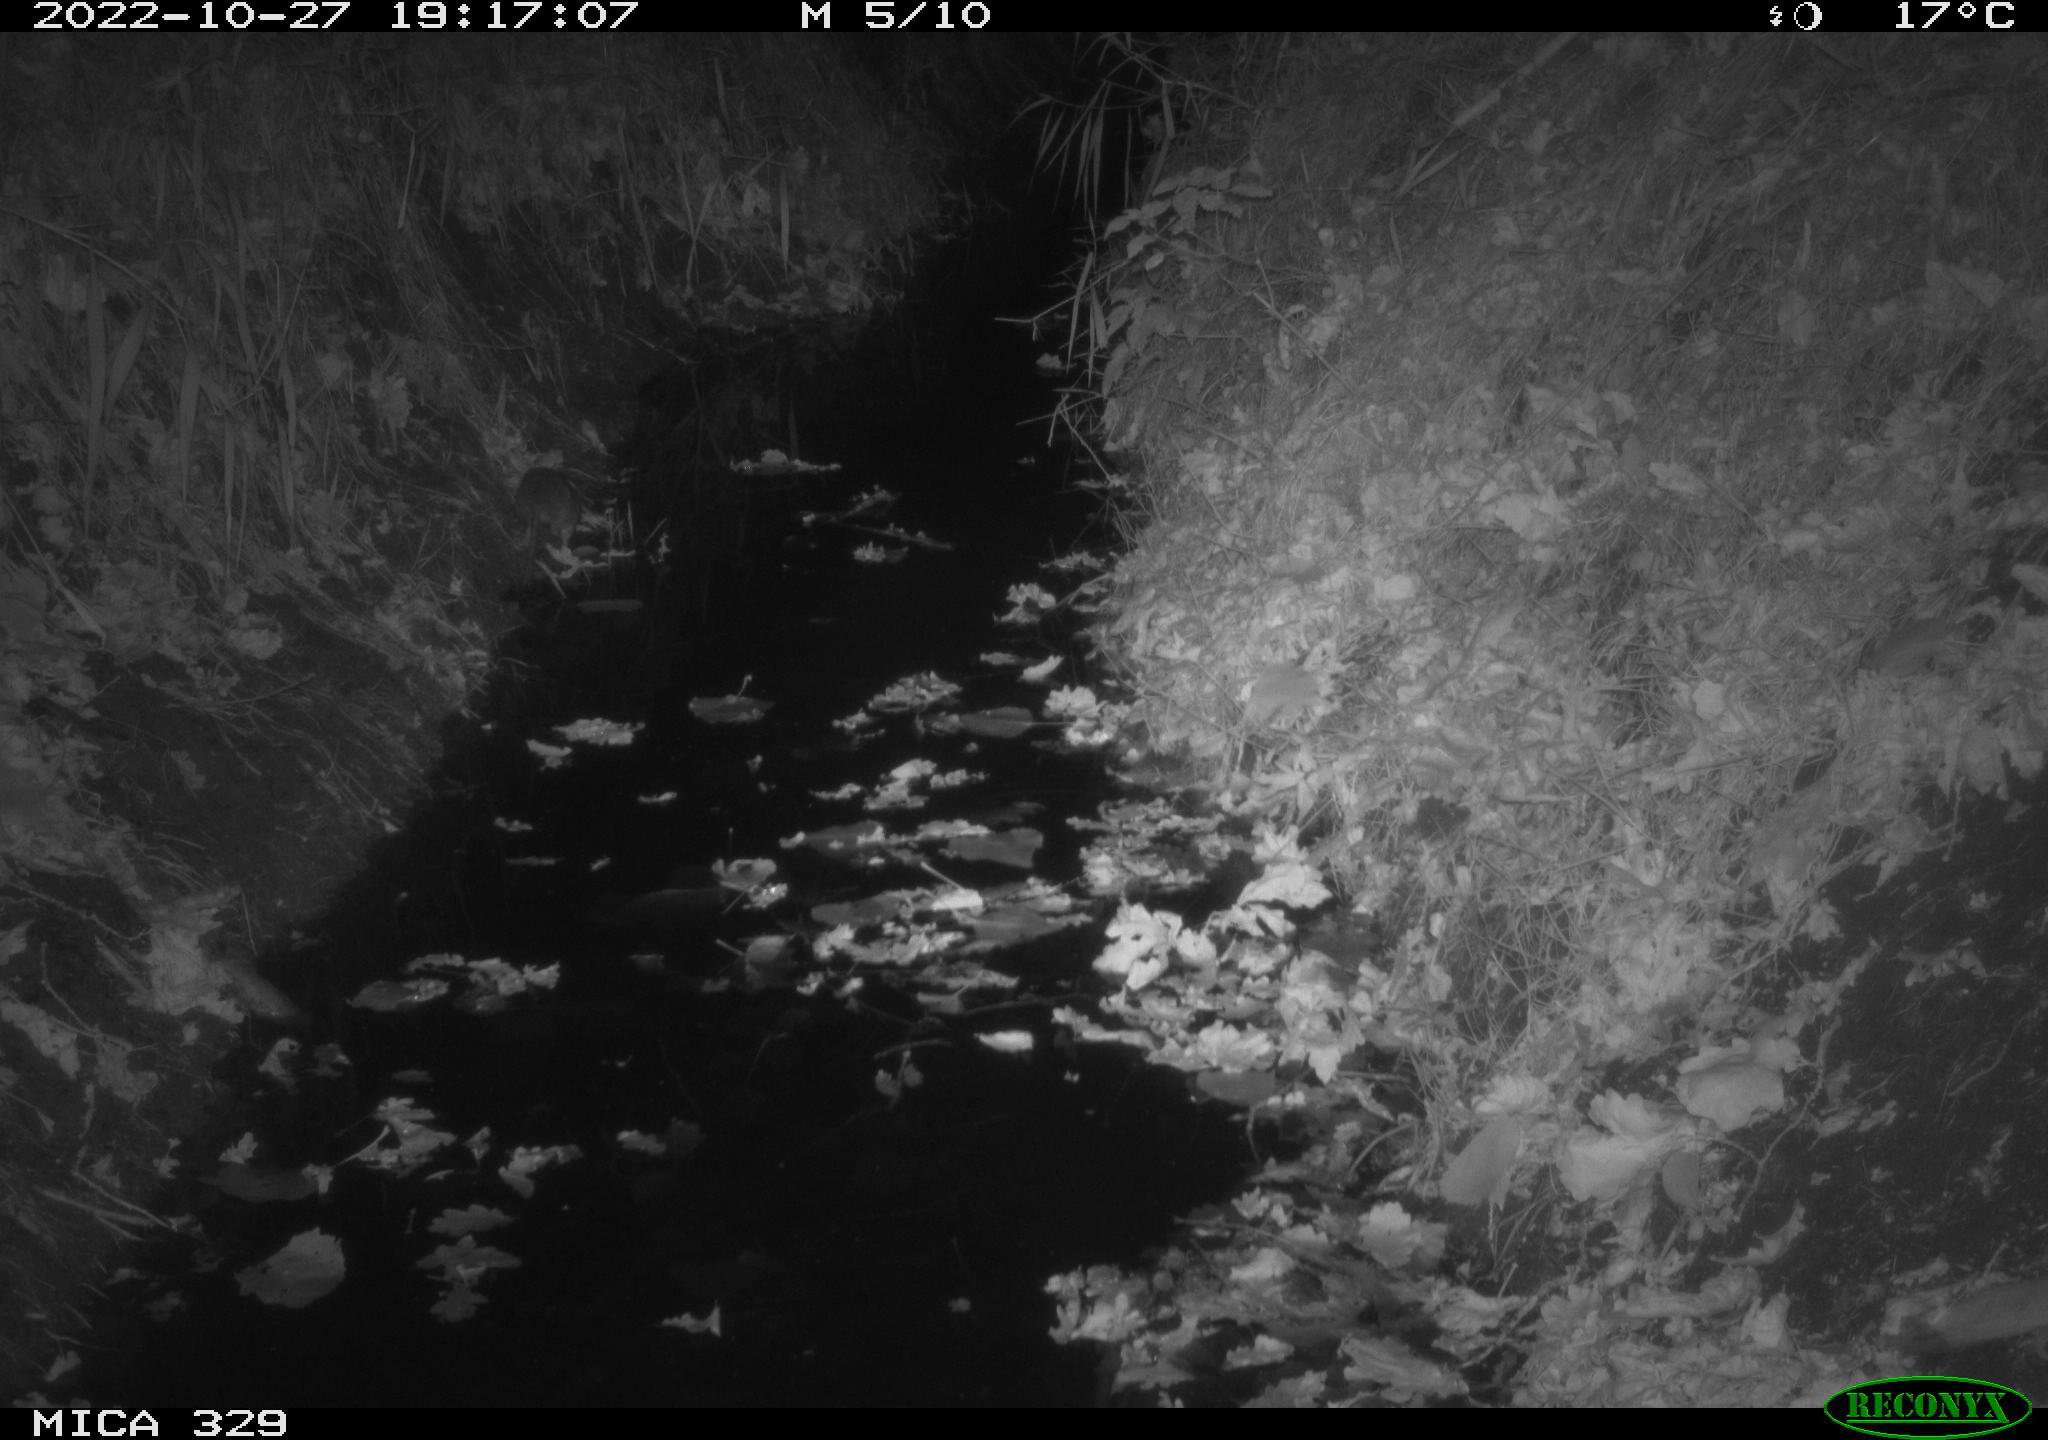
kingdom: Animalia
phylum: Chordata
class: Mammalia
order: Rodentia
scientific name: Rodentia
